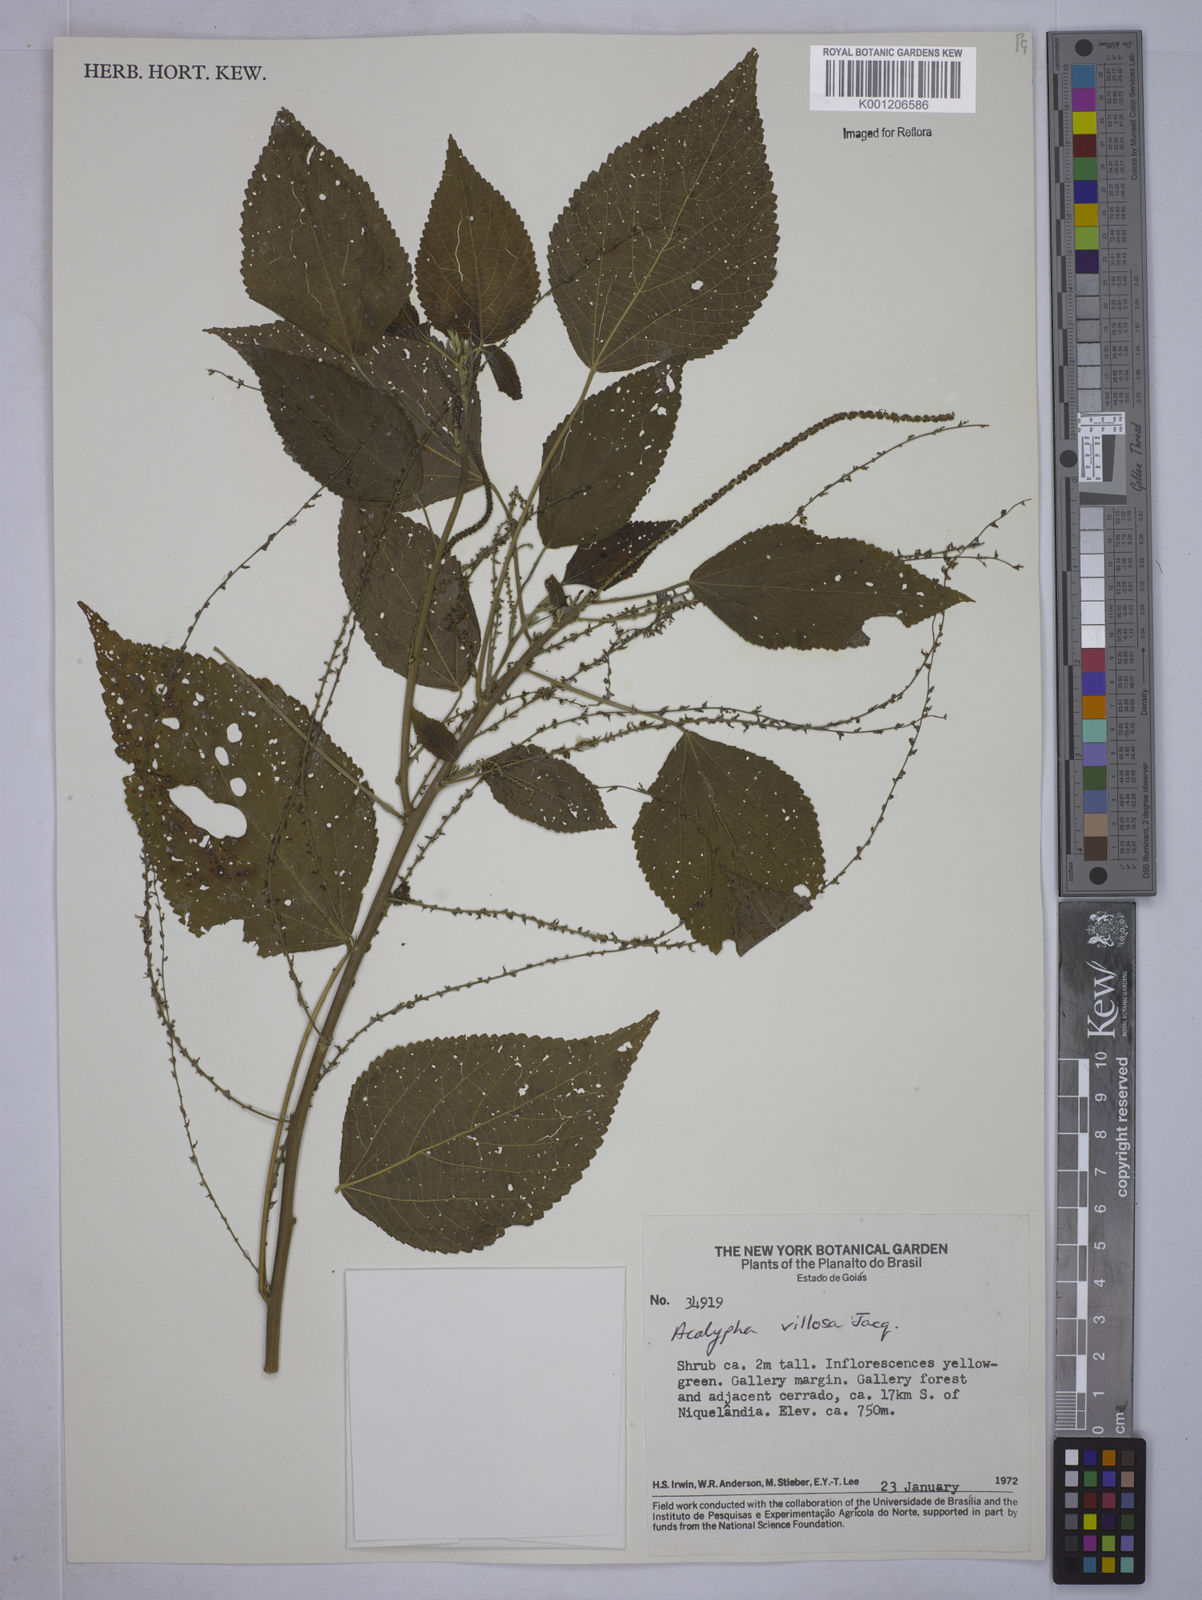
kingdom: Plantae
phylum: Tracheophyta
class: Magnoliopsida
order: Malpighiales
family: Euphorbiaceae
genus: Acalypha
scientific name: Acalypha villosa
